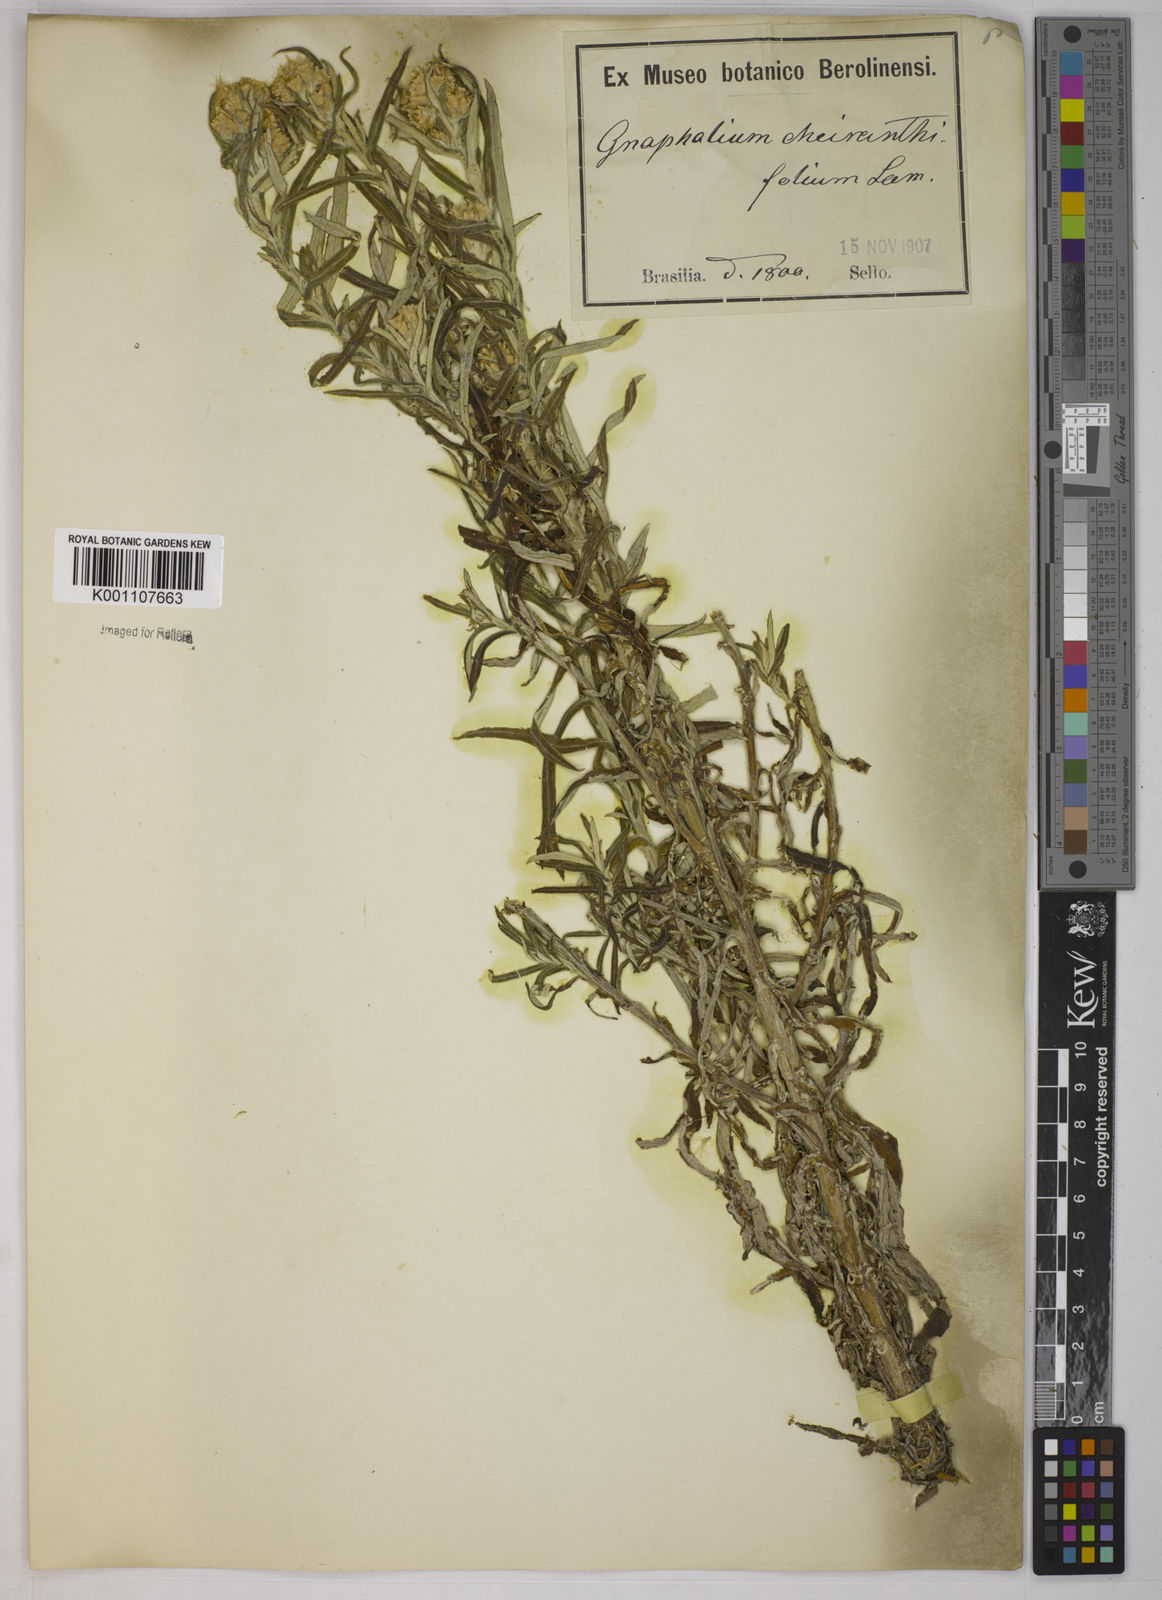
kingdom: Plantae
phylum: Tracheophyta
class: Magnoliopsida
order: Asterales
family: Asteraceae
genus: Pseudognaphalium
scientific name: Pseudognaphalium cheiranthifolium
